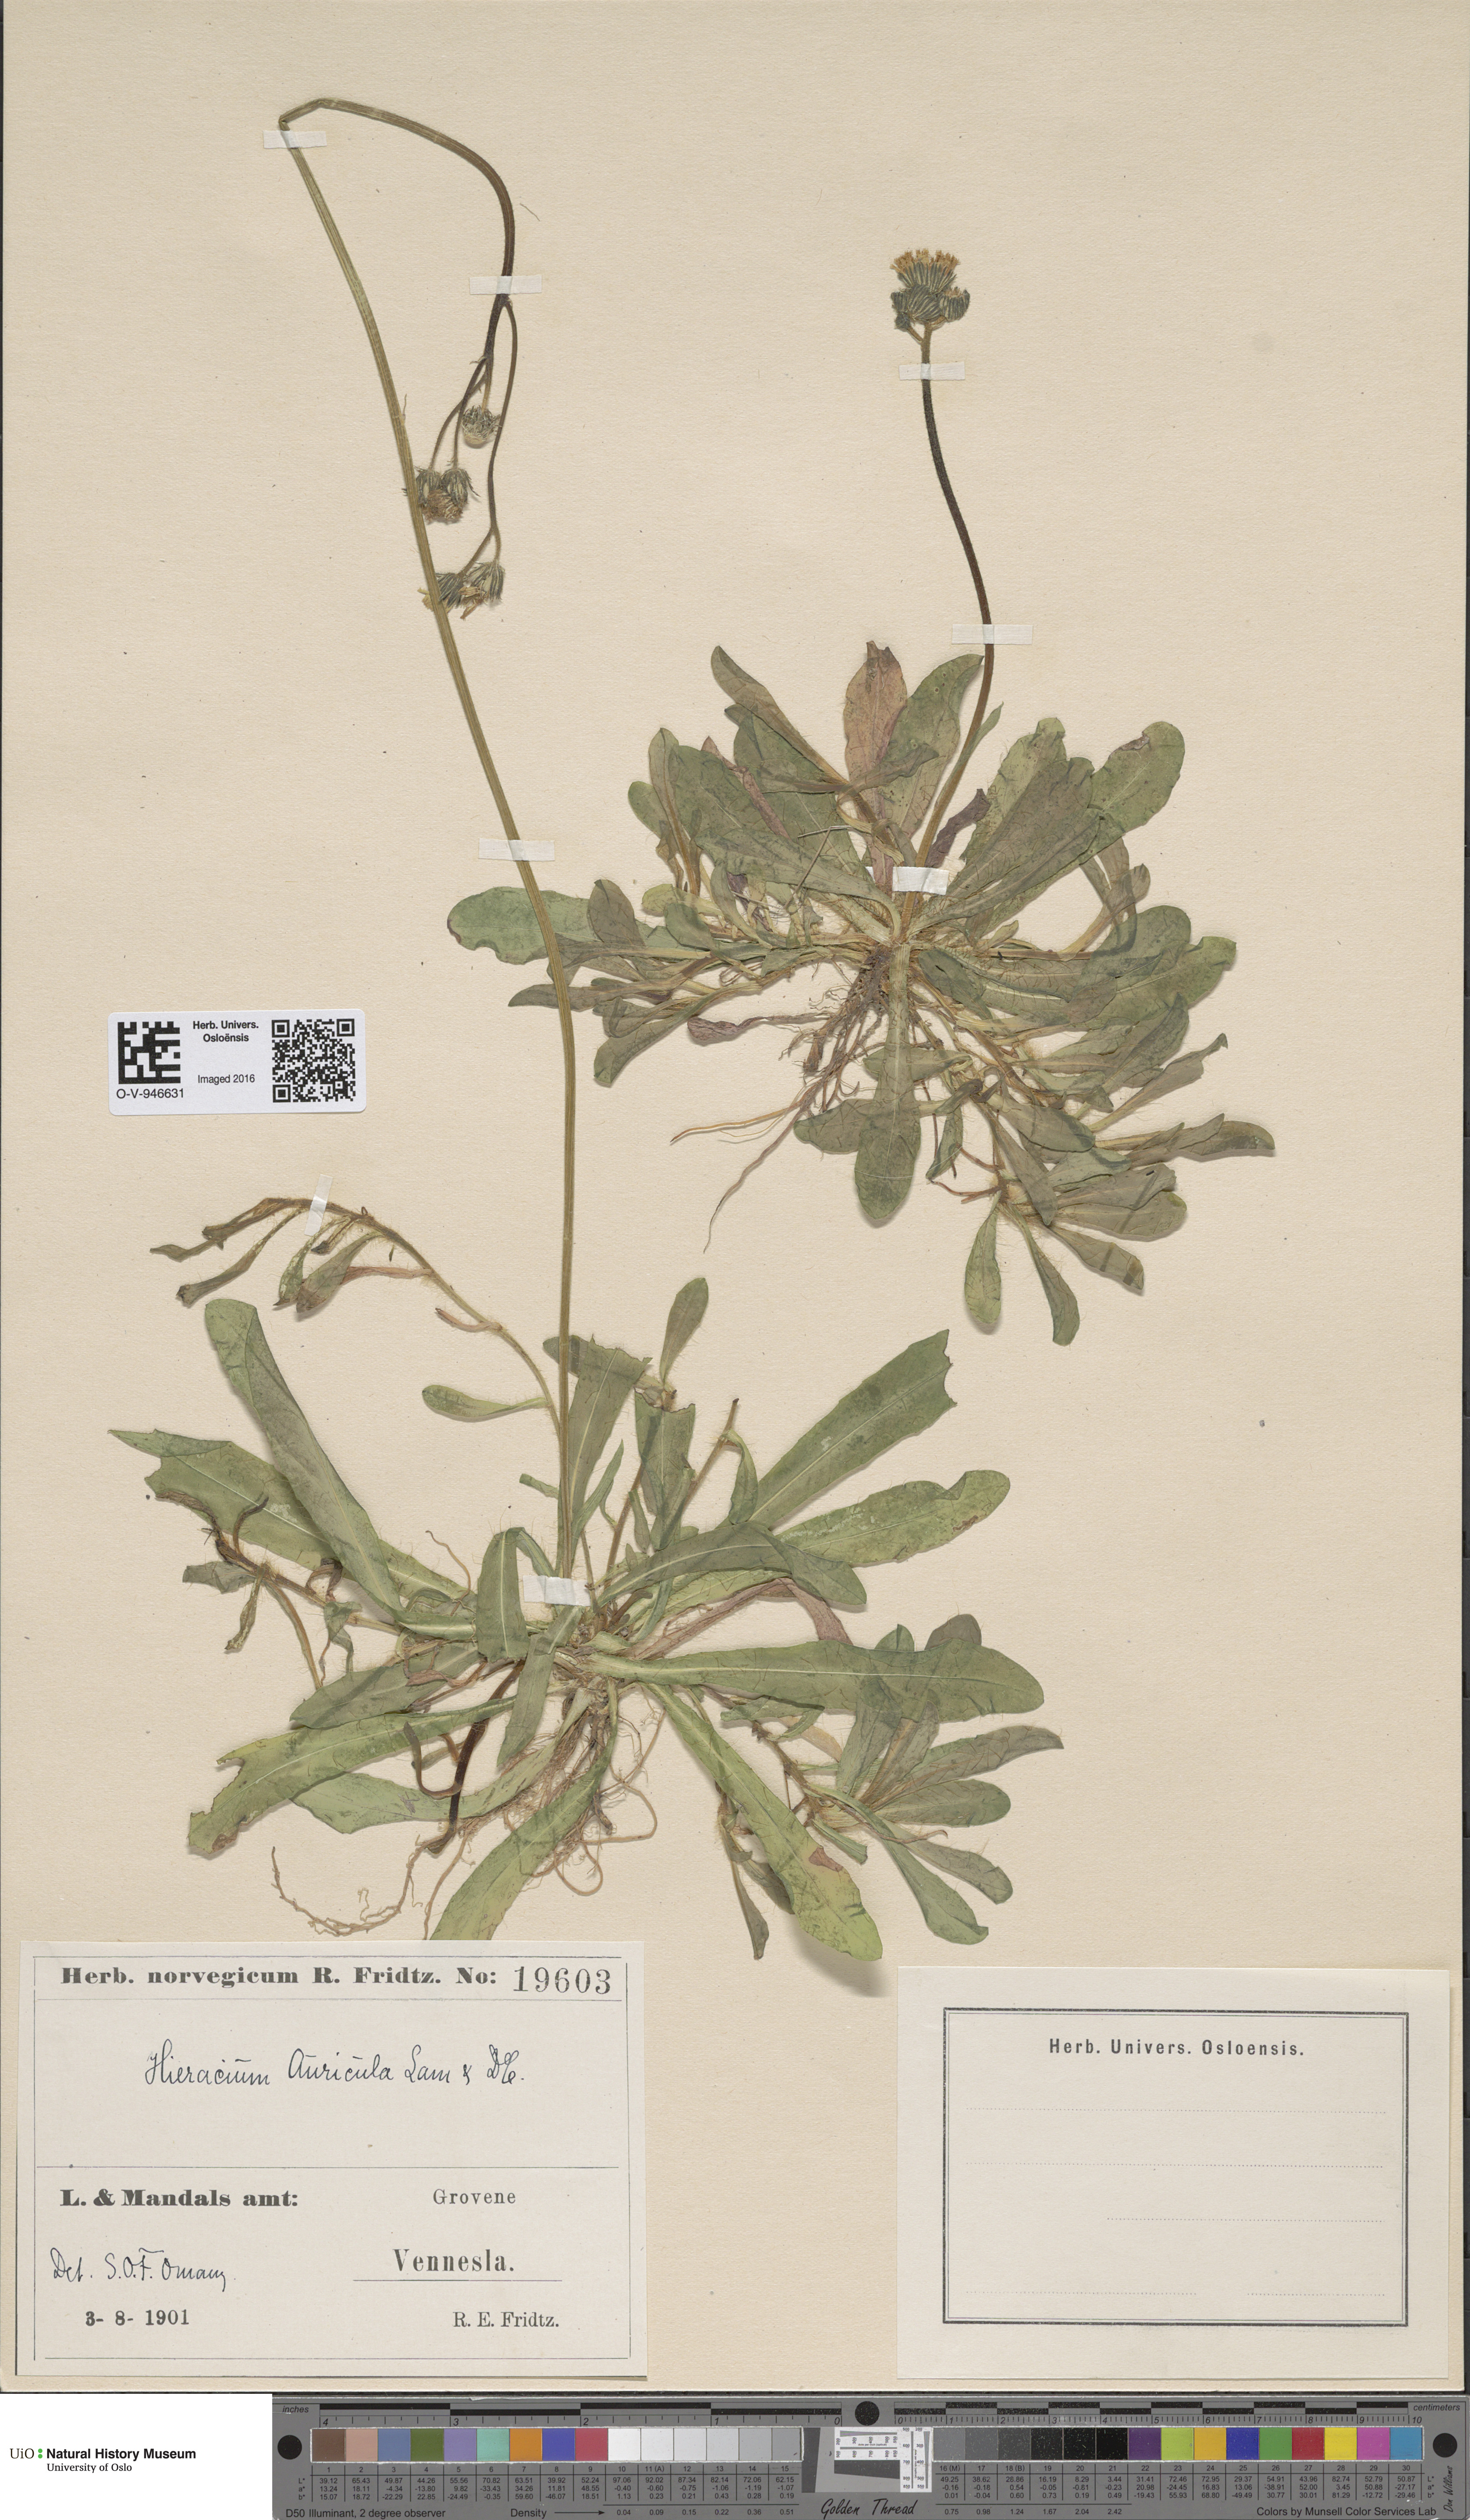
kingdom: Plantae
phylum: Tracheophyta
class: Magnoliopsida
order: Asterales
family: Asteraceae
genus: Pilosella
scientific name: Pilosella lactucella
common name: Glaucous fox-and-cubs
